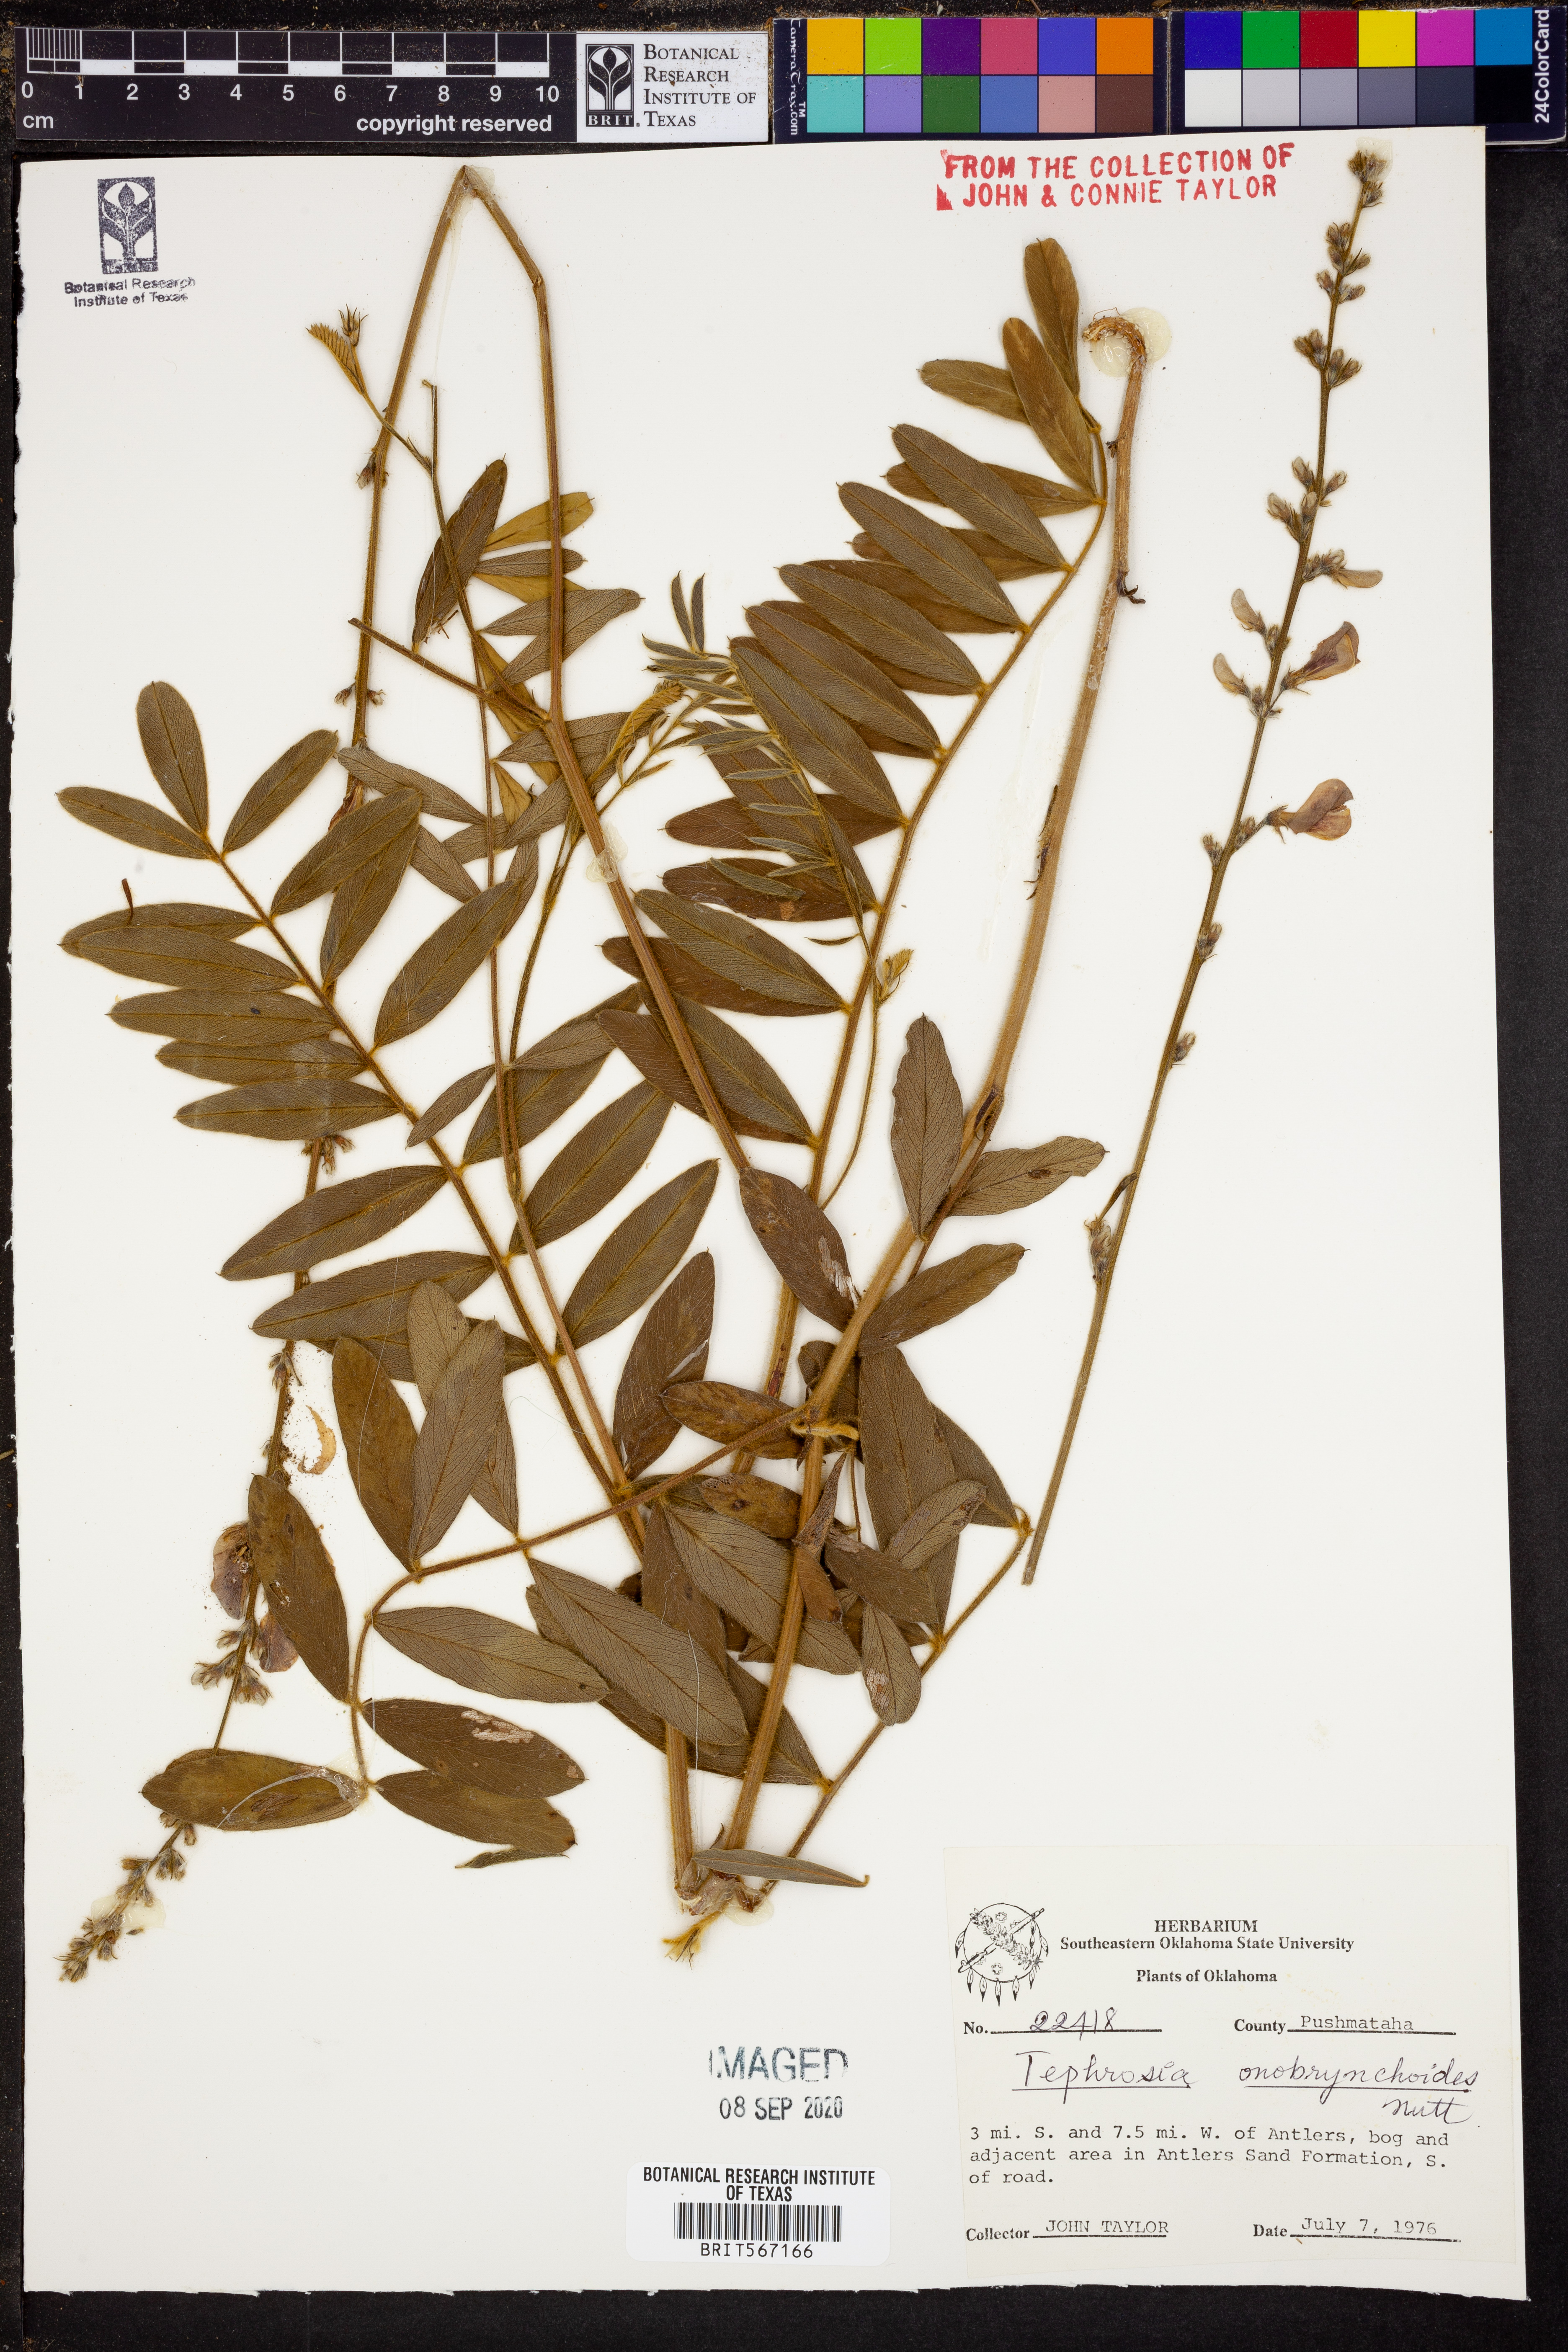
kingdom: Plantae
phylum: Tracheophyta
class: Magnoliopsida
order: Fabales
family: Fabaceae
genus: Tephrosia
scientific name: Tephrosia onobrychoides
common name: Multi-bloom hoary-pea
